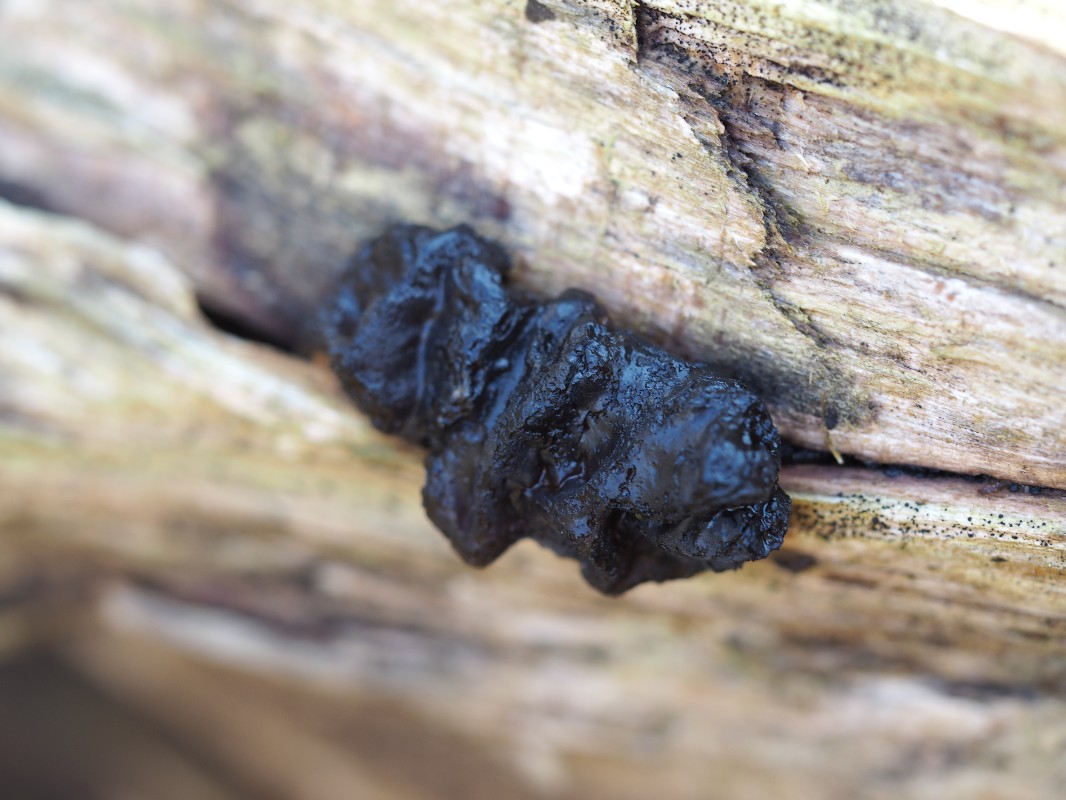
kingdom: Fungi
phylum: Basidiomycota
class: Agaricomycetes
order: Auriculariales
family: Auriculariaceae
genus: Exidia
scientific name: Exidia nigricans
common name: almindelig bævretop
